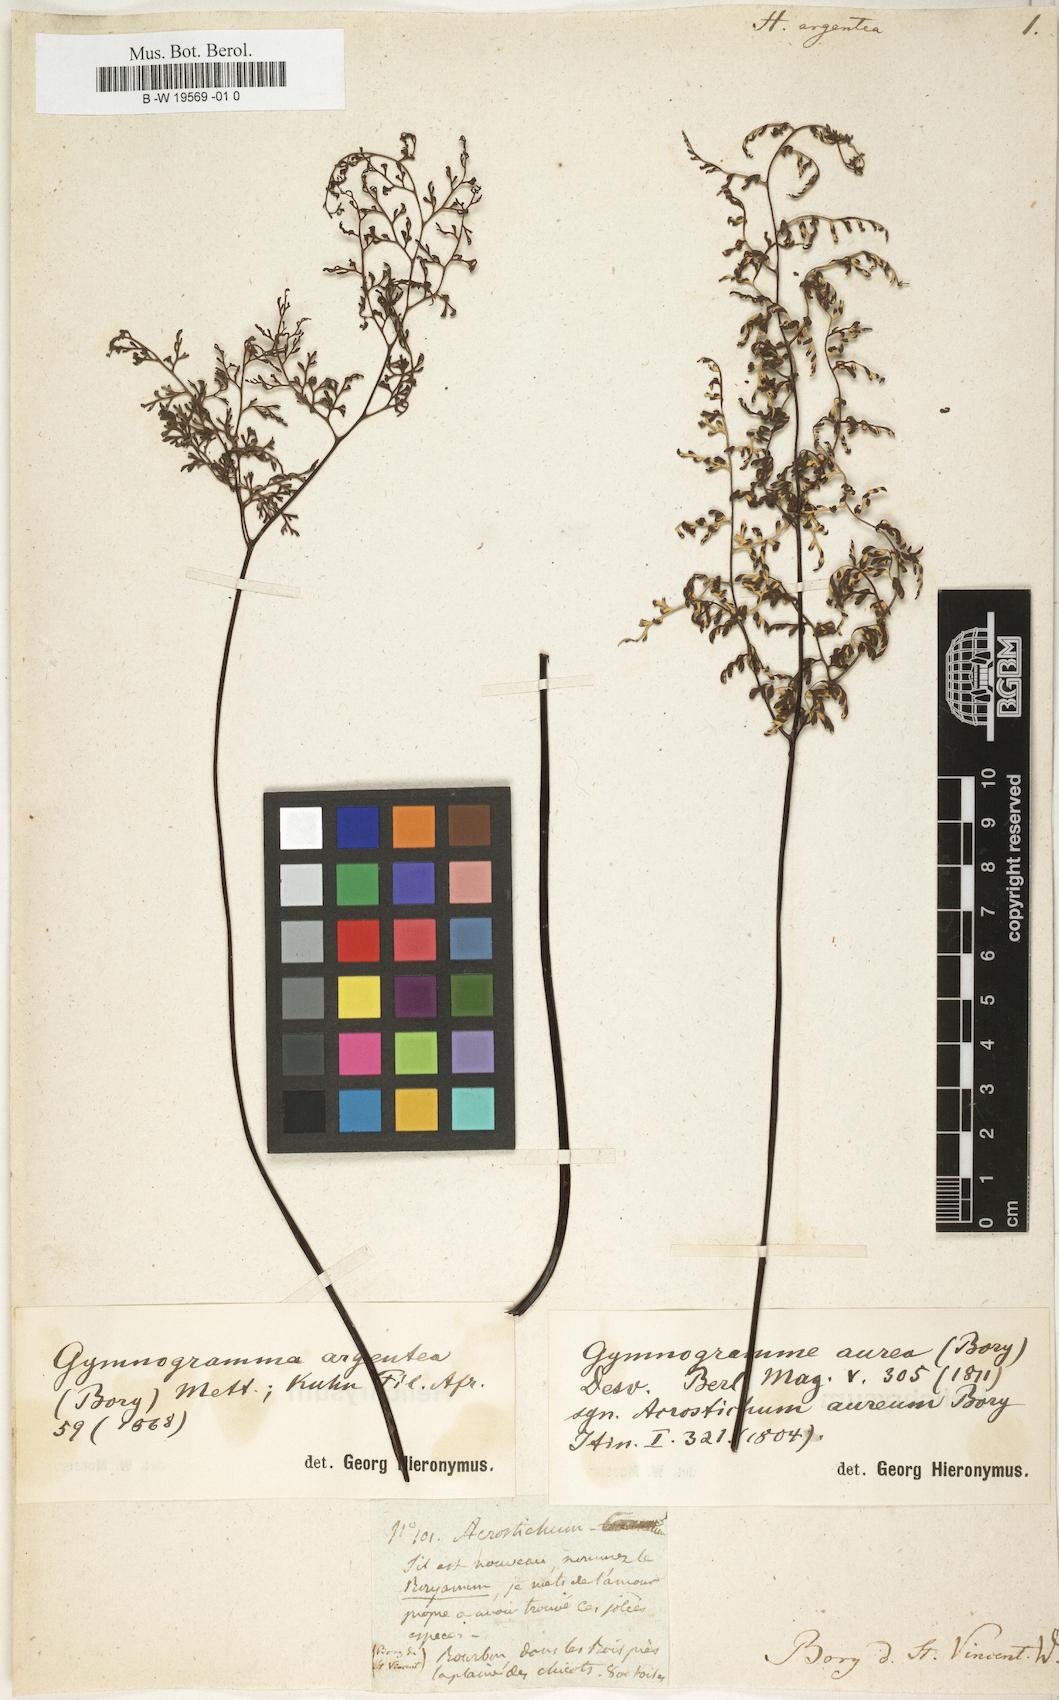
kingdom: Plantae
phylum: Tracheophyta
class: Polypodiopsida
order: Polypodiales
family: Pteridaceae
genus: Cerosora
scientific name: Cerosora argentea
